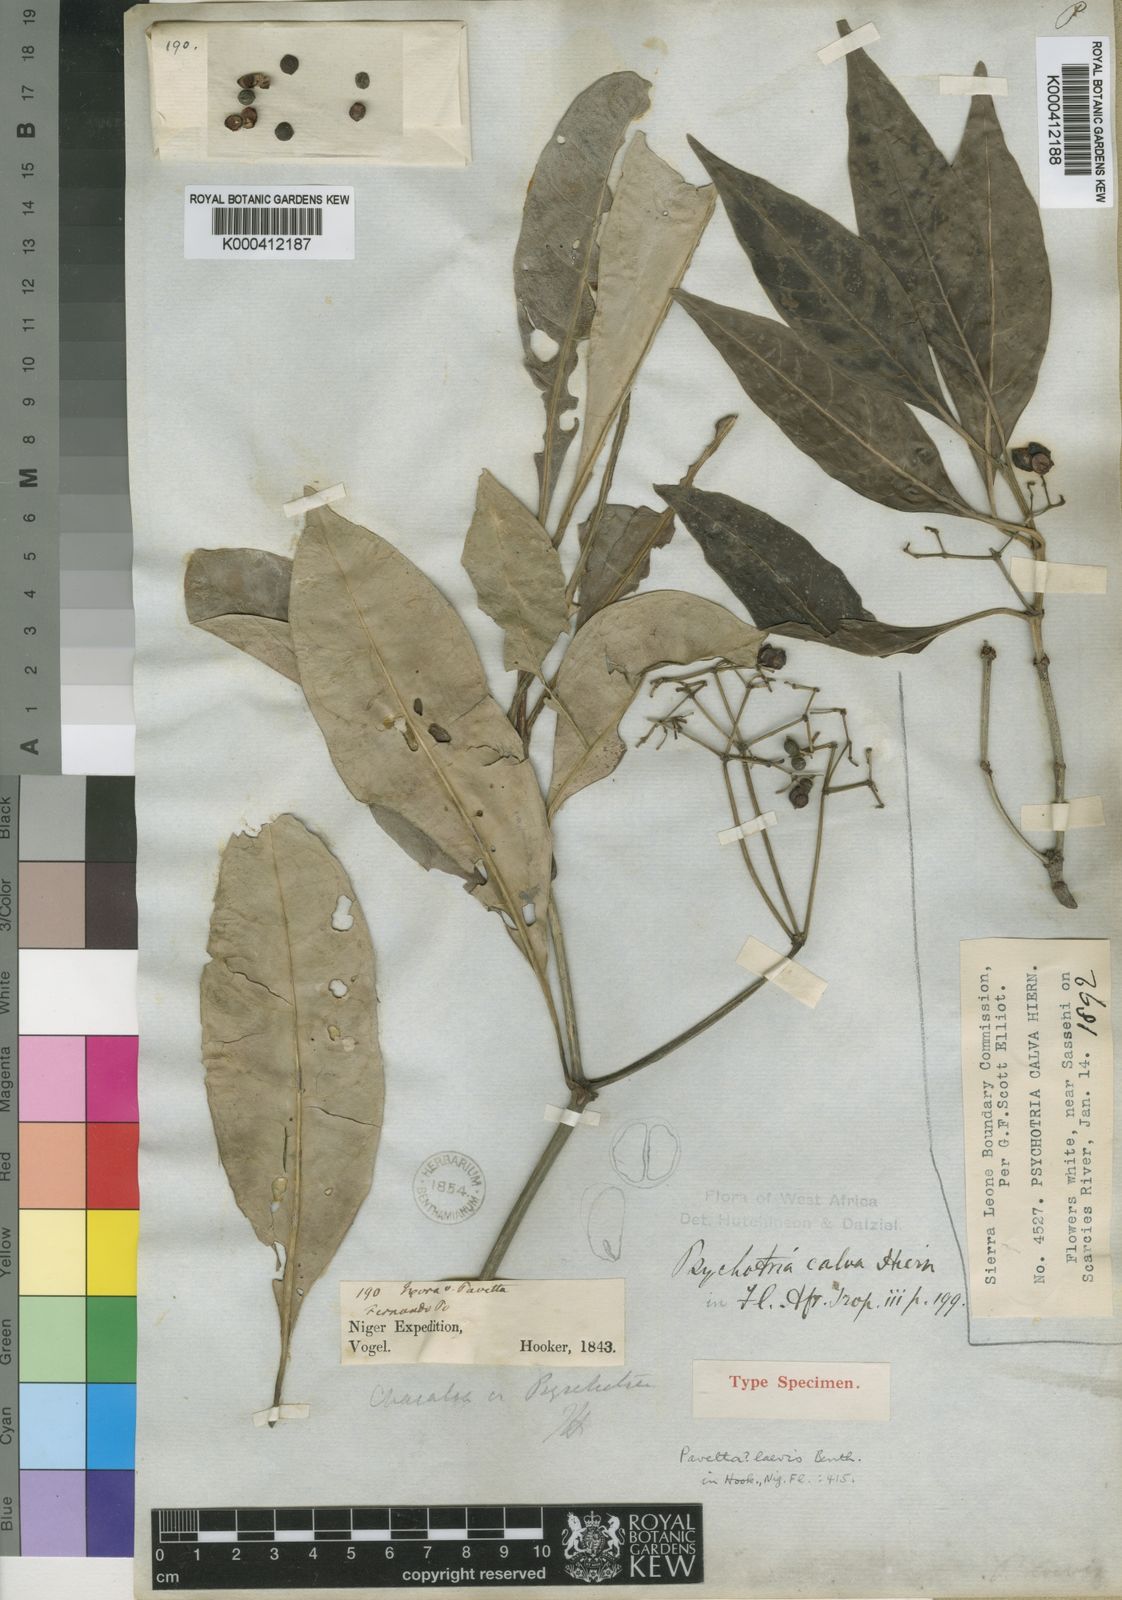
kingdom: Plantae
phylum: Tracheophyta
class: Magnoliopsida
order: Gentianales
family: Rubiaceae
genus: Psychotria
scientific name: Psychotria calva
